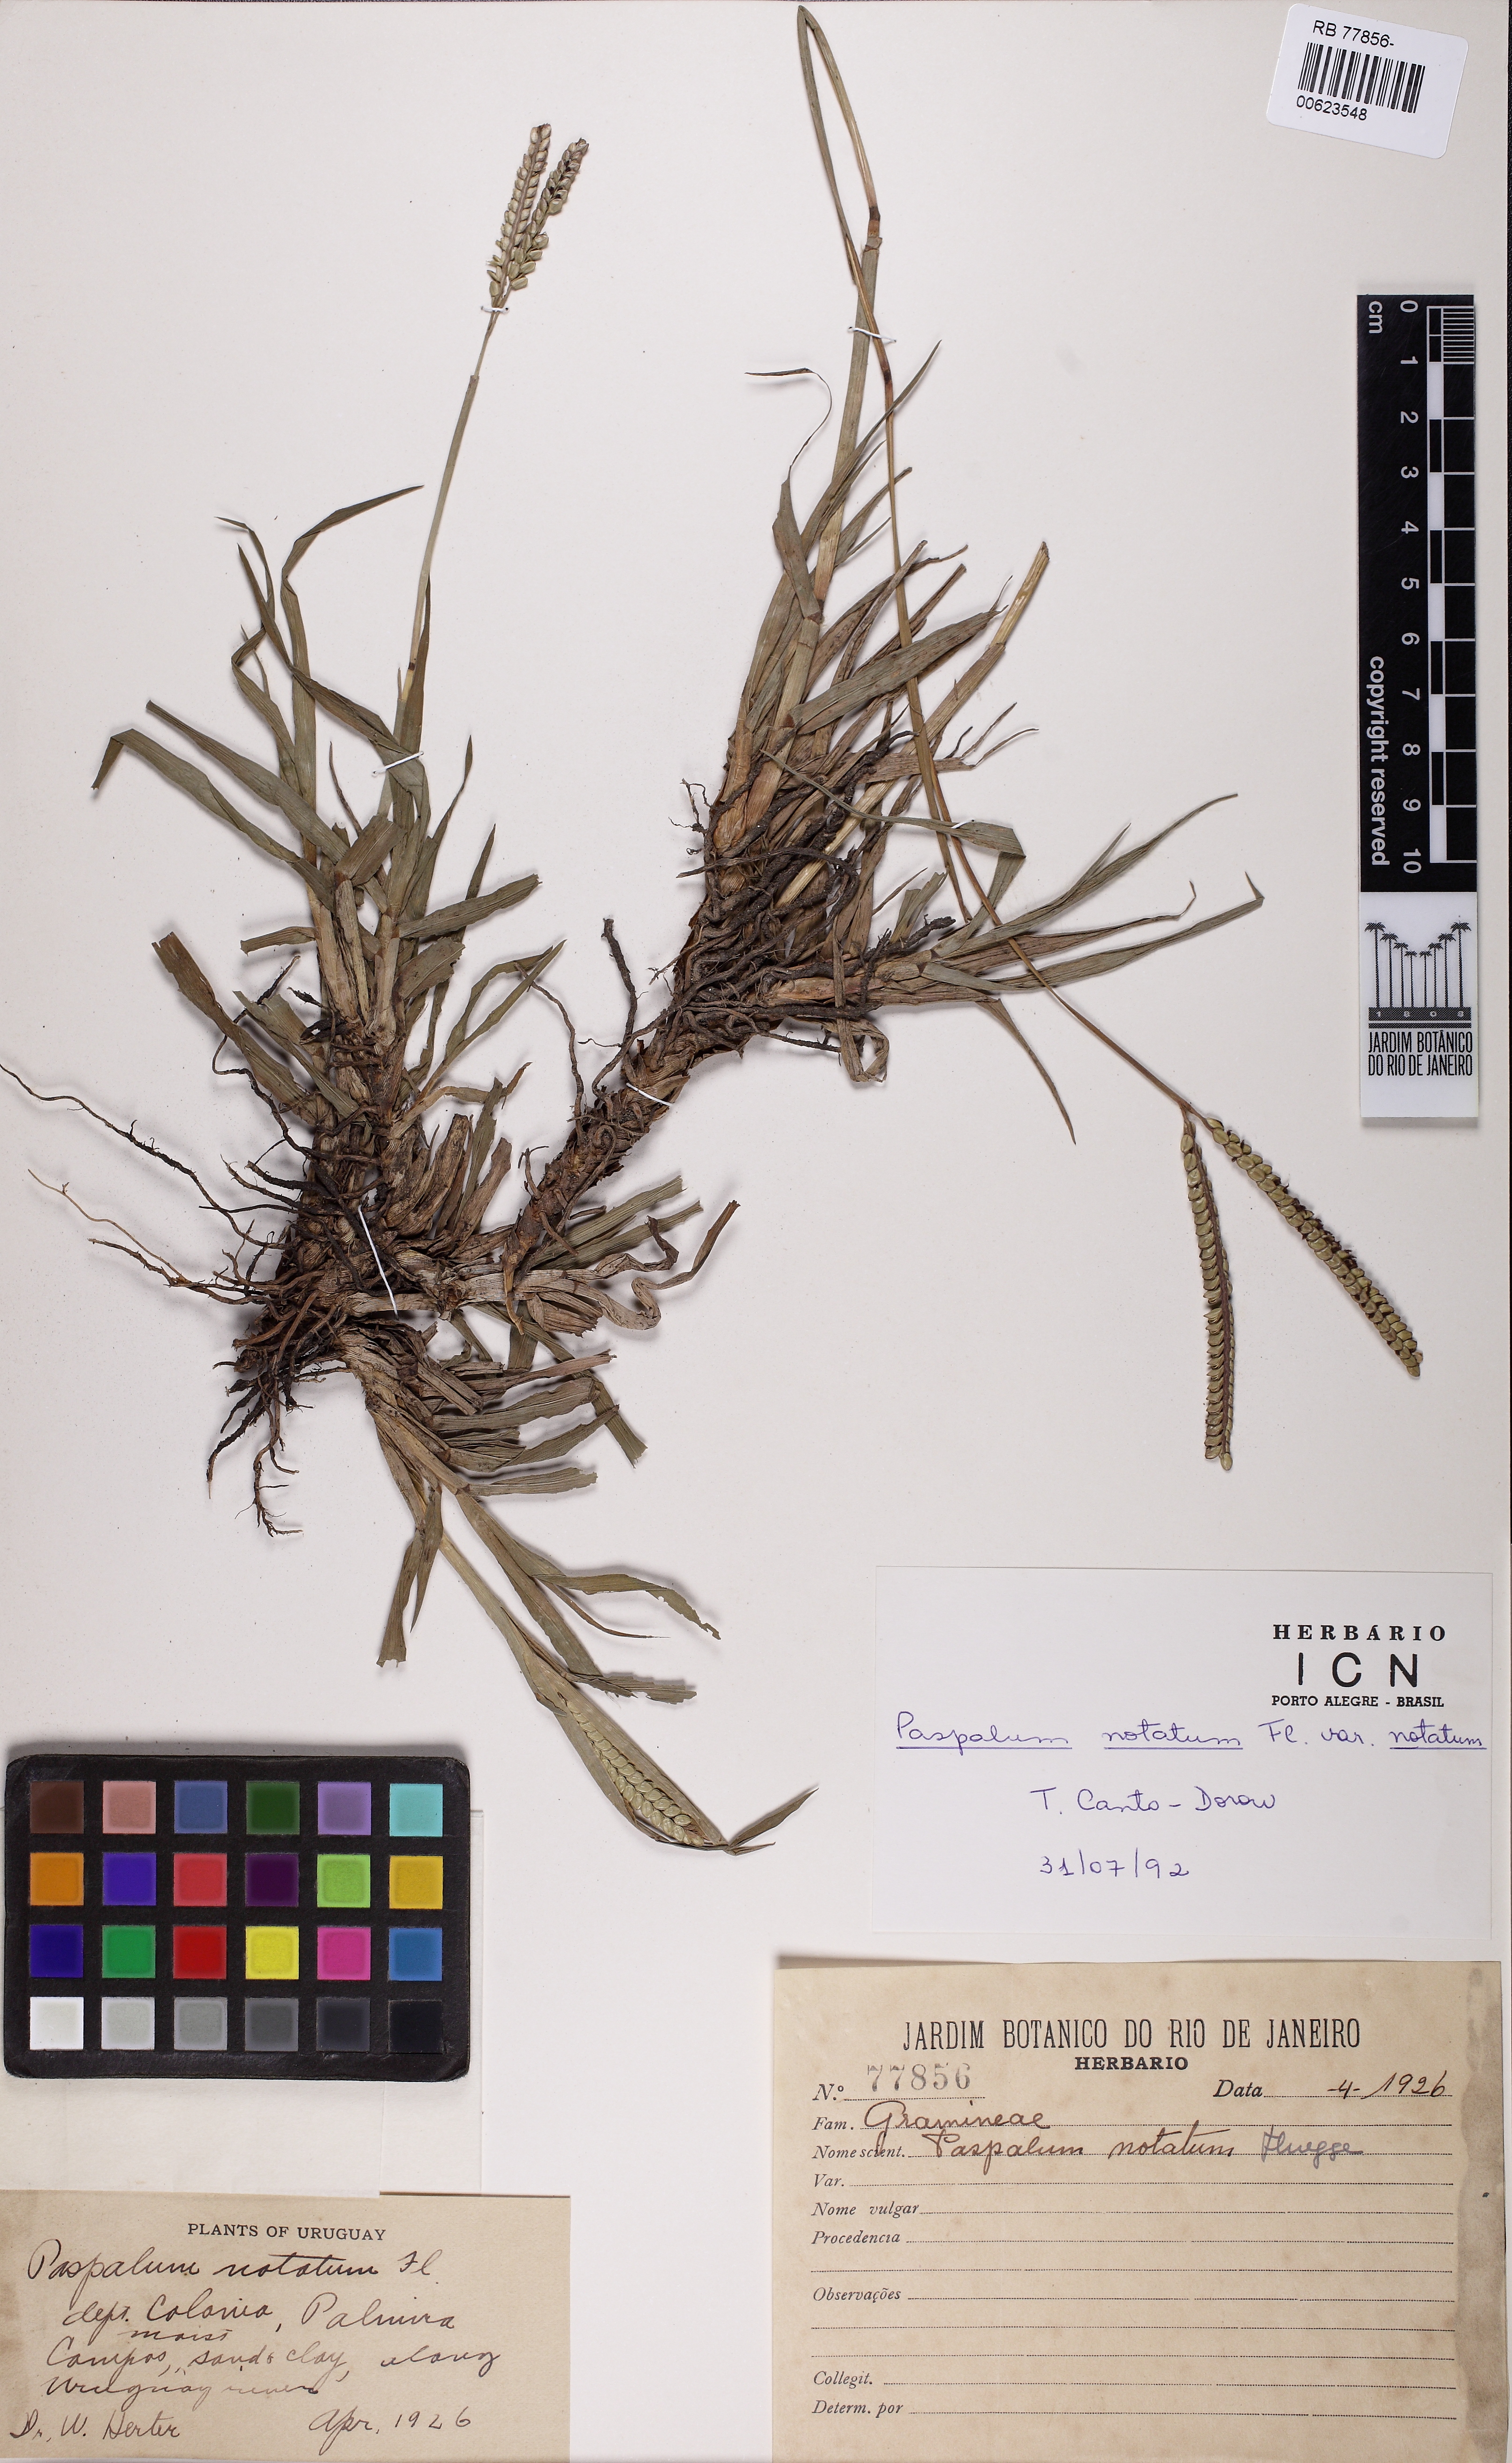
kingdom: Plantae
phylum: Tracheophyta
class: Liliopsida
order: Poales
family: Poaceae
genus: Paspalum
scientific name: Paspalum notatum
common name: Bahiagrass
